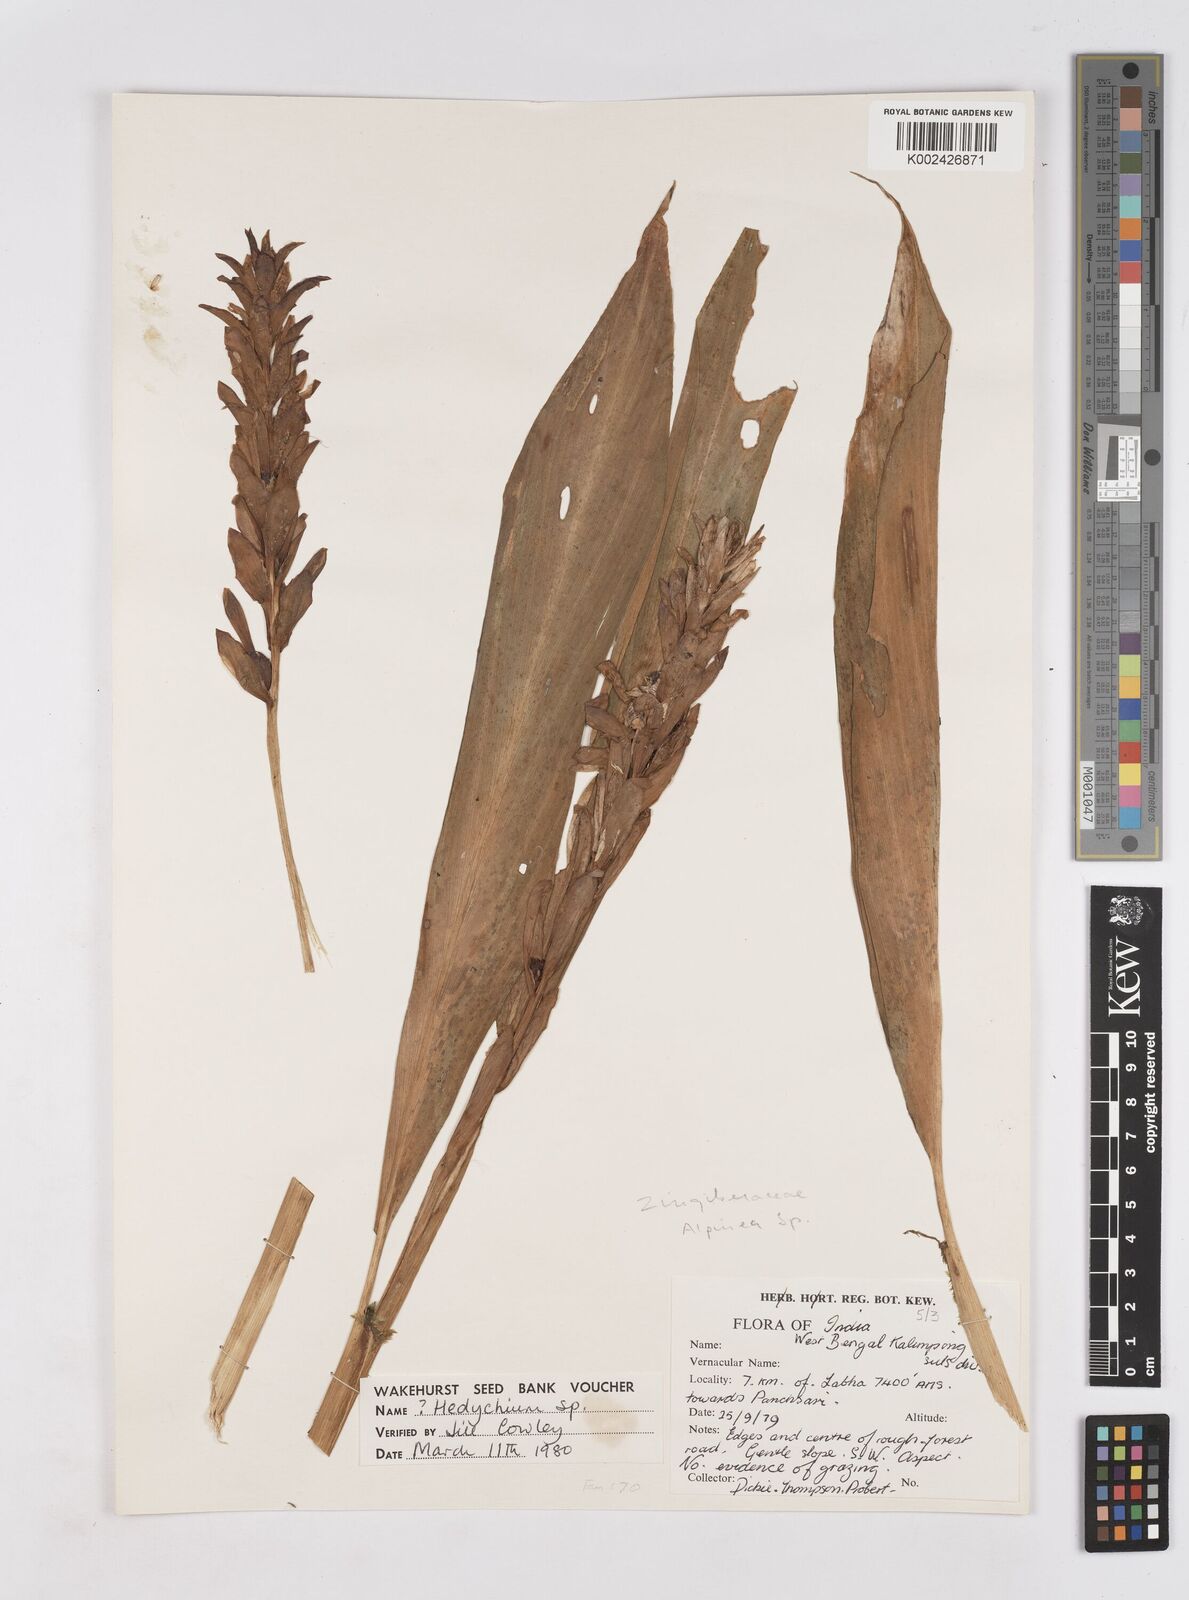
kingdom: Plantae
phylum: Tracheophyta
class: Liliopsida
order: Zingiberales
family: Zingiberaceae
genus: Hedychium
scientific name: Hedychium
